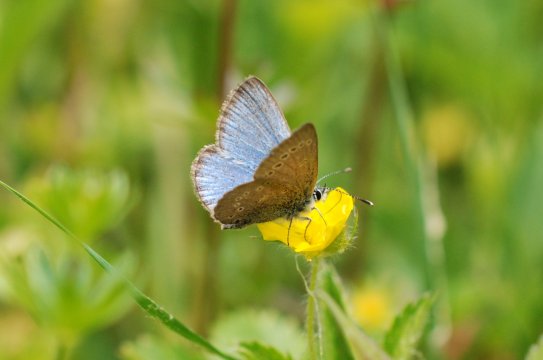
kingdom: Animalia
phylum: Arthropoda
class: Insecta
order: Lepidoptera
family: Lycaenidae
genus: Glaucopsyche
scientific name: Glaucopsyche lygdamus
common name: Silvery Blue
